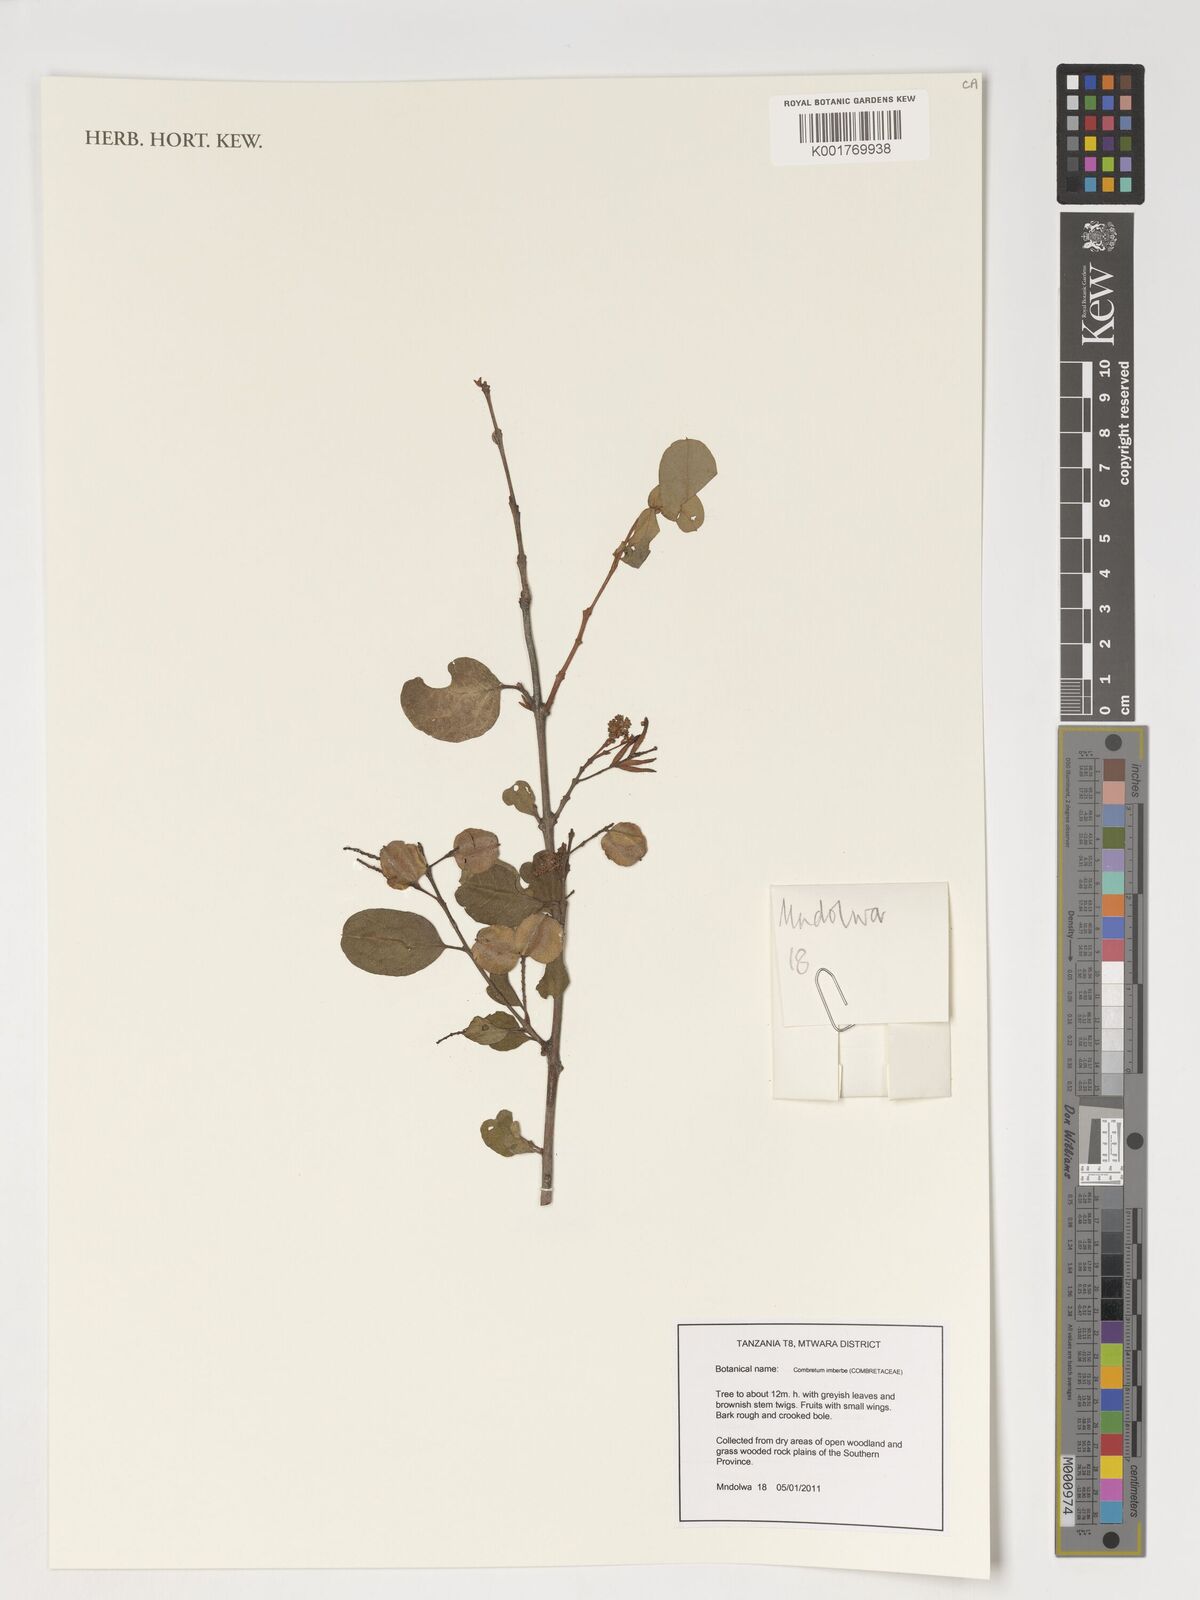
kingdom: Plantae
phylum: Tracheophyta
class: Magnoliopsida
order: Myrtales
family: Combretaceae
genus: Combretum
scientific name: Combretum imberbe
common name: Leadwood
